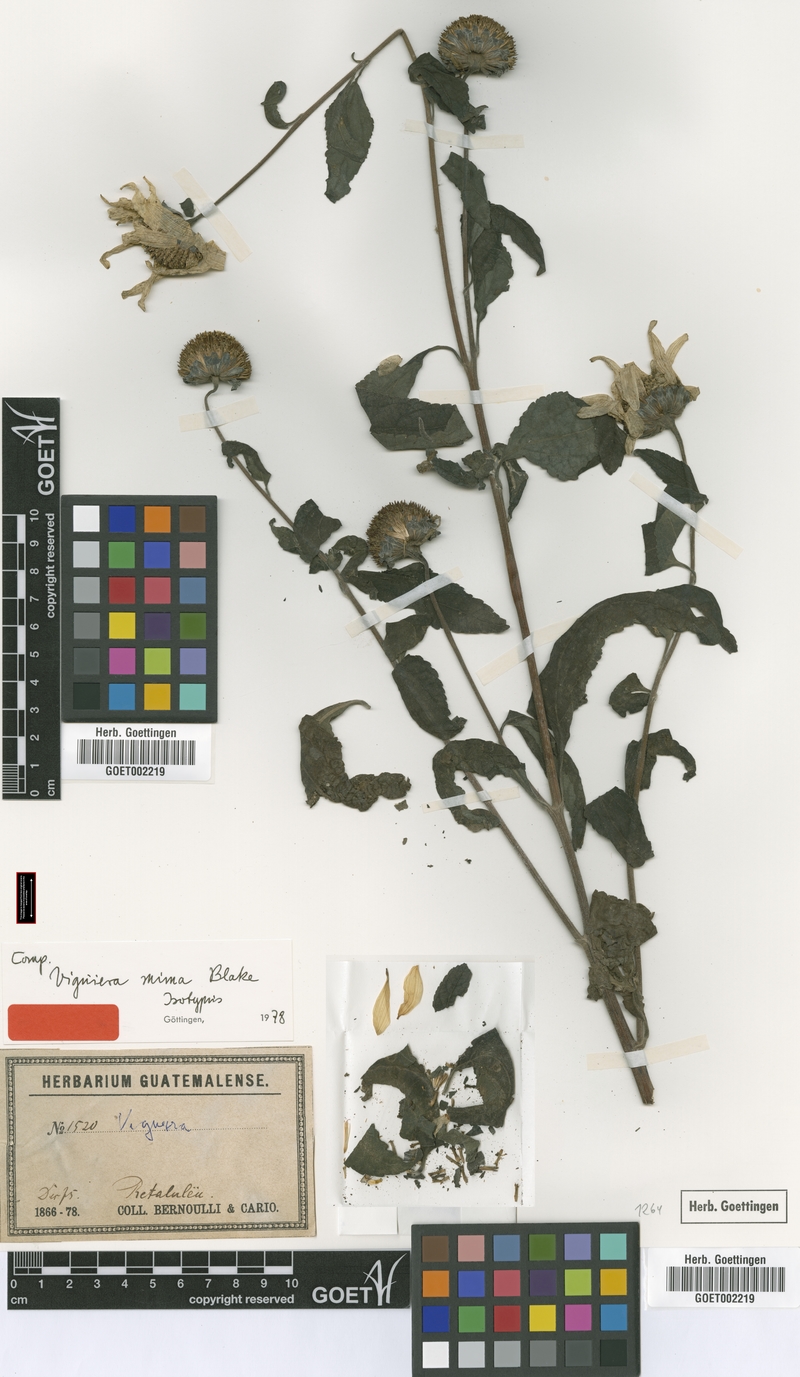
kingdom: Plantae
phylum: Tracheophyta
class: Magnoliopsida
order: Asterales
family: Asteraceae
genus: Viguiera
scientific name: Viguiera mima
